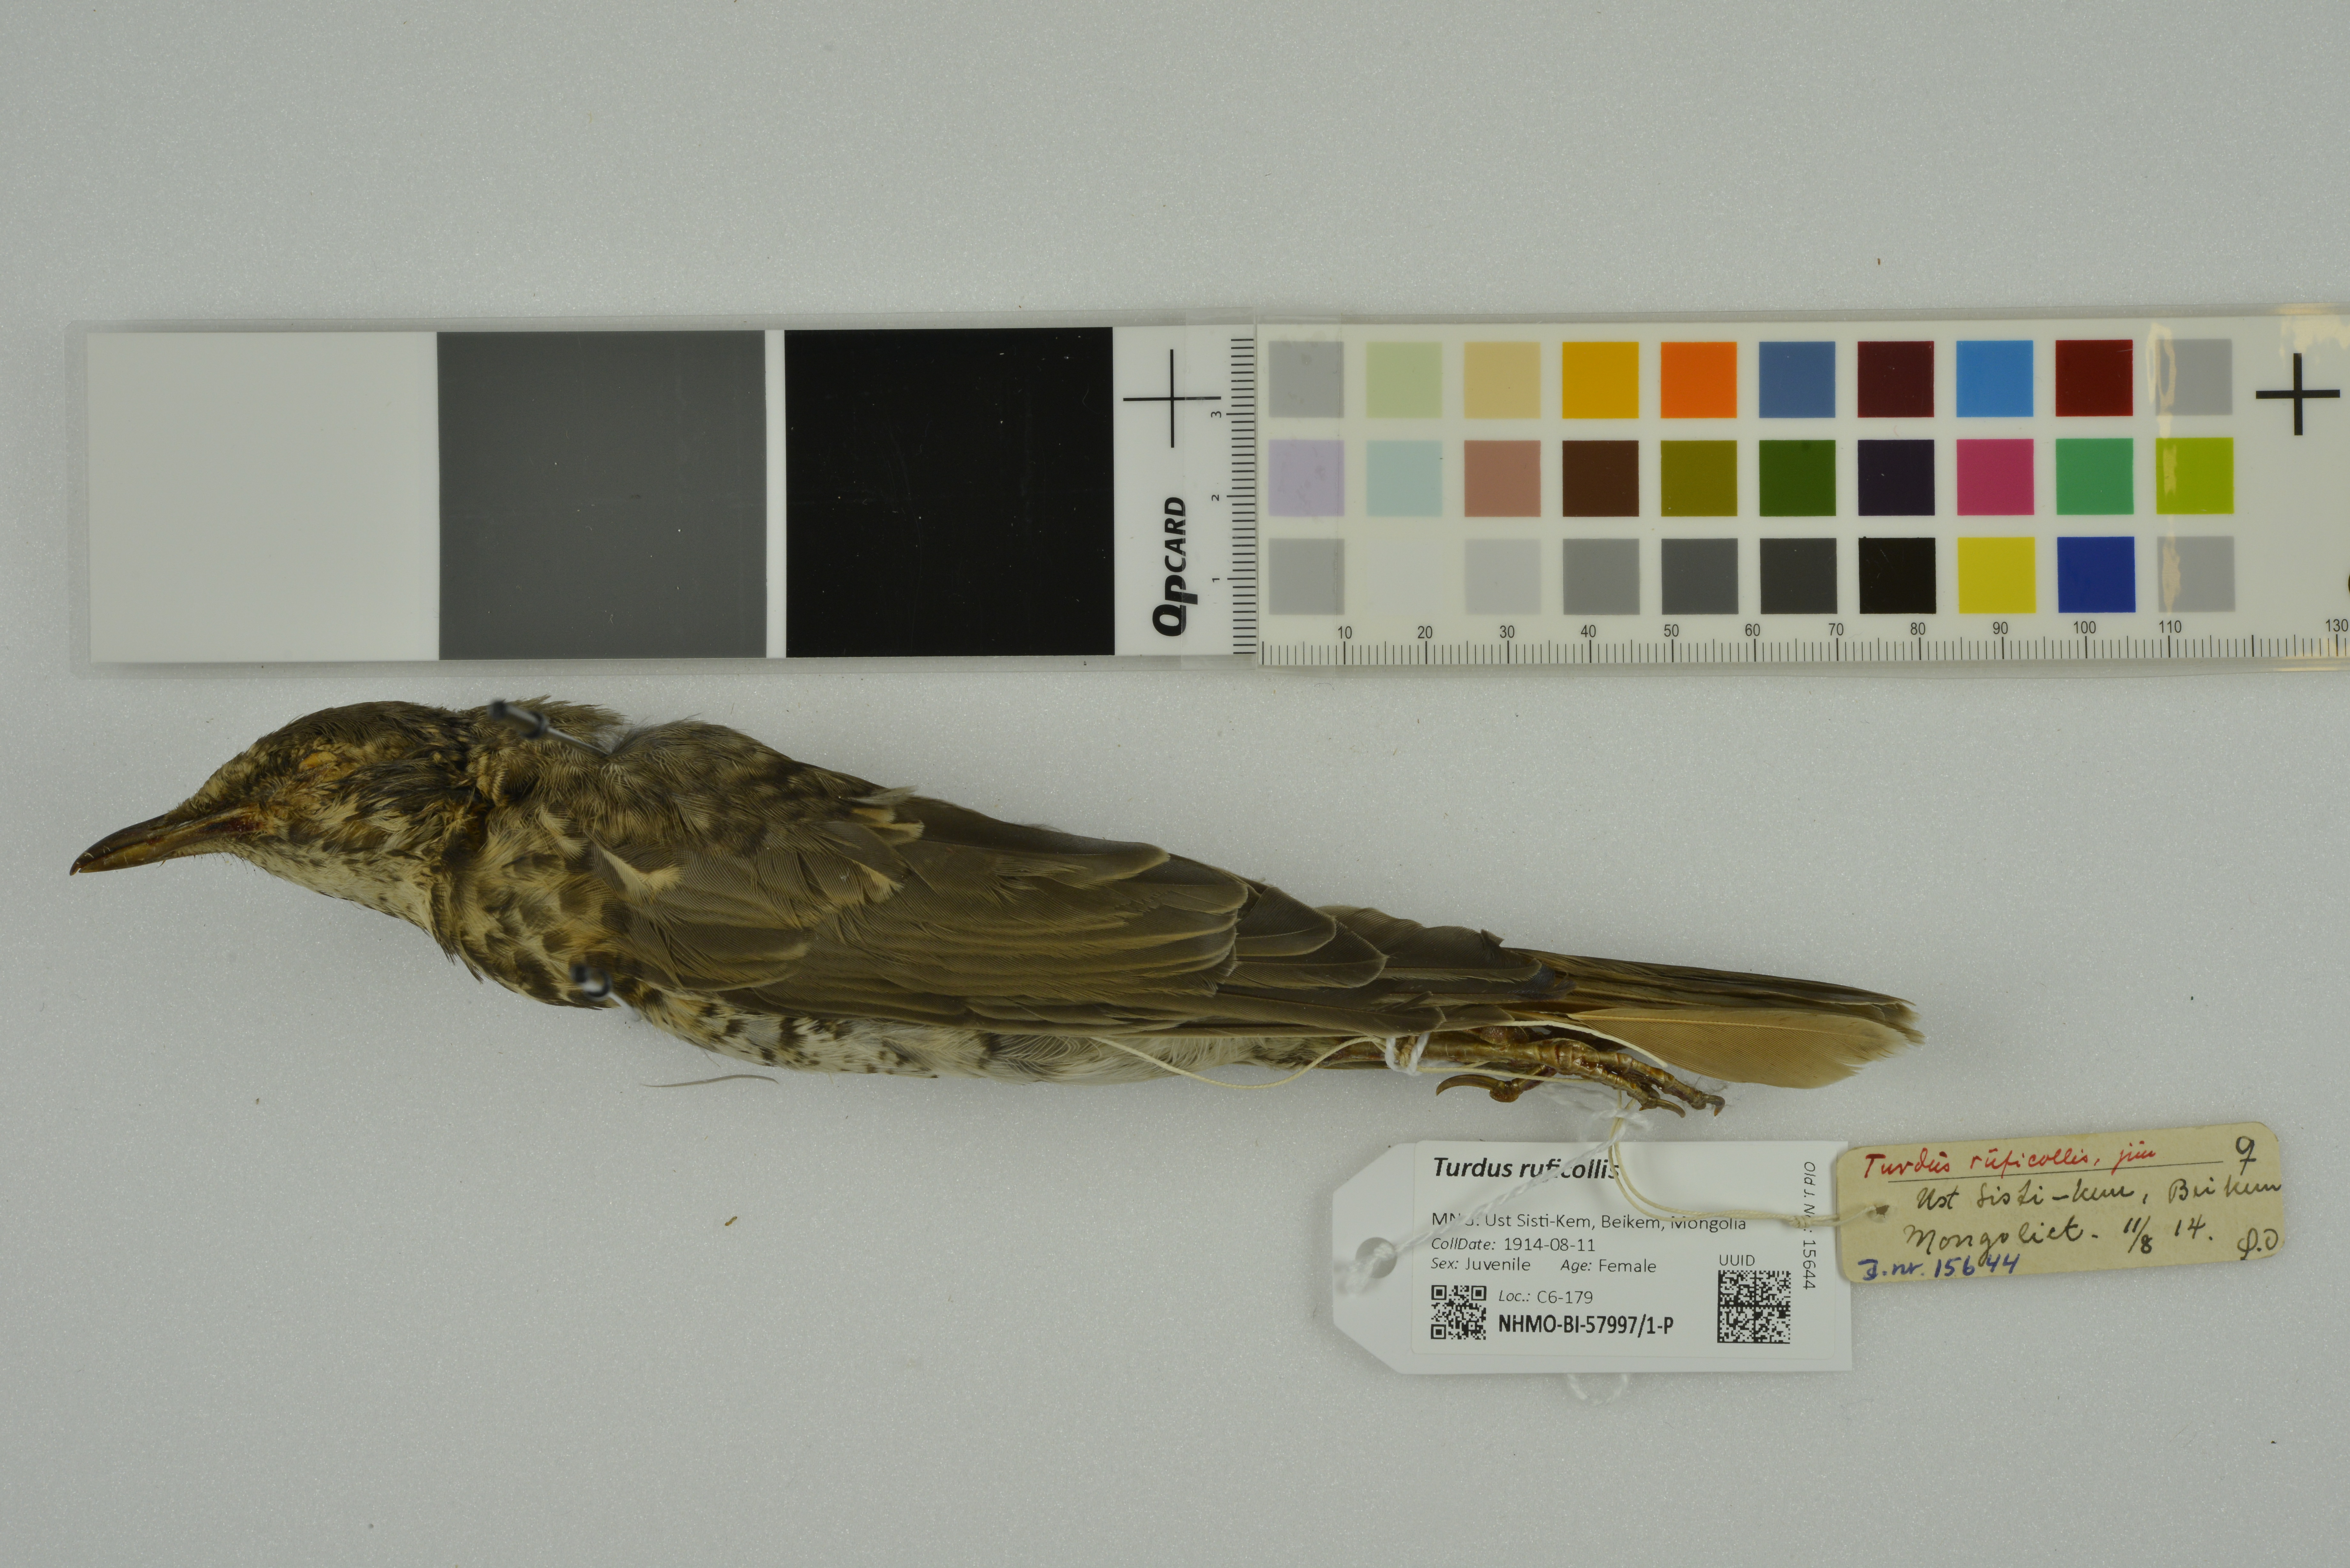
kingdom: Animalia
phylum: Chordata
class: Aves
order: Passeriformes
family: Turdidae
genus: Turdus
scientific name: Turdus ruficollis
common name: Red-throated thrush
